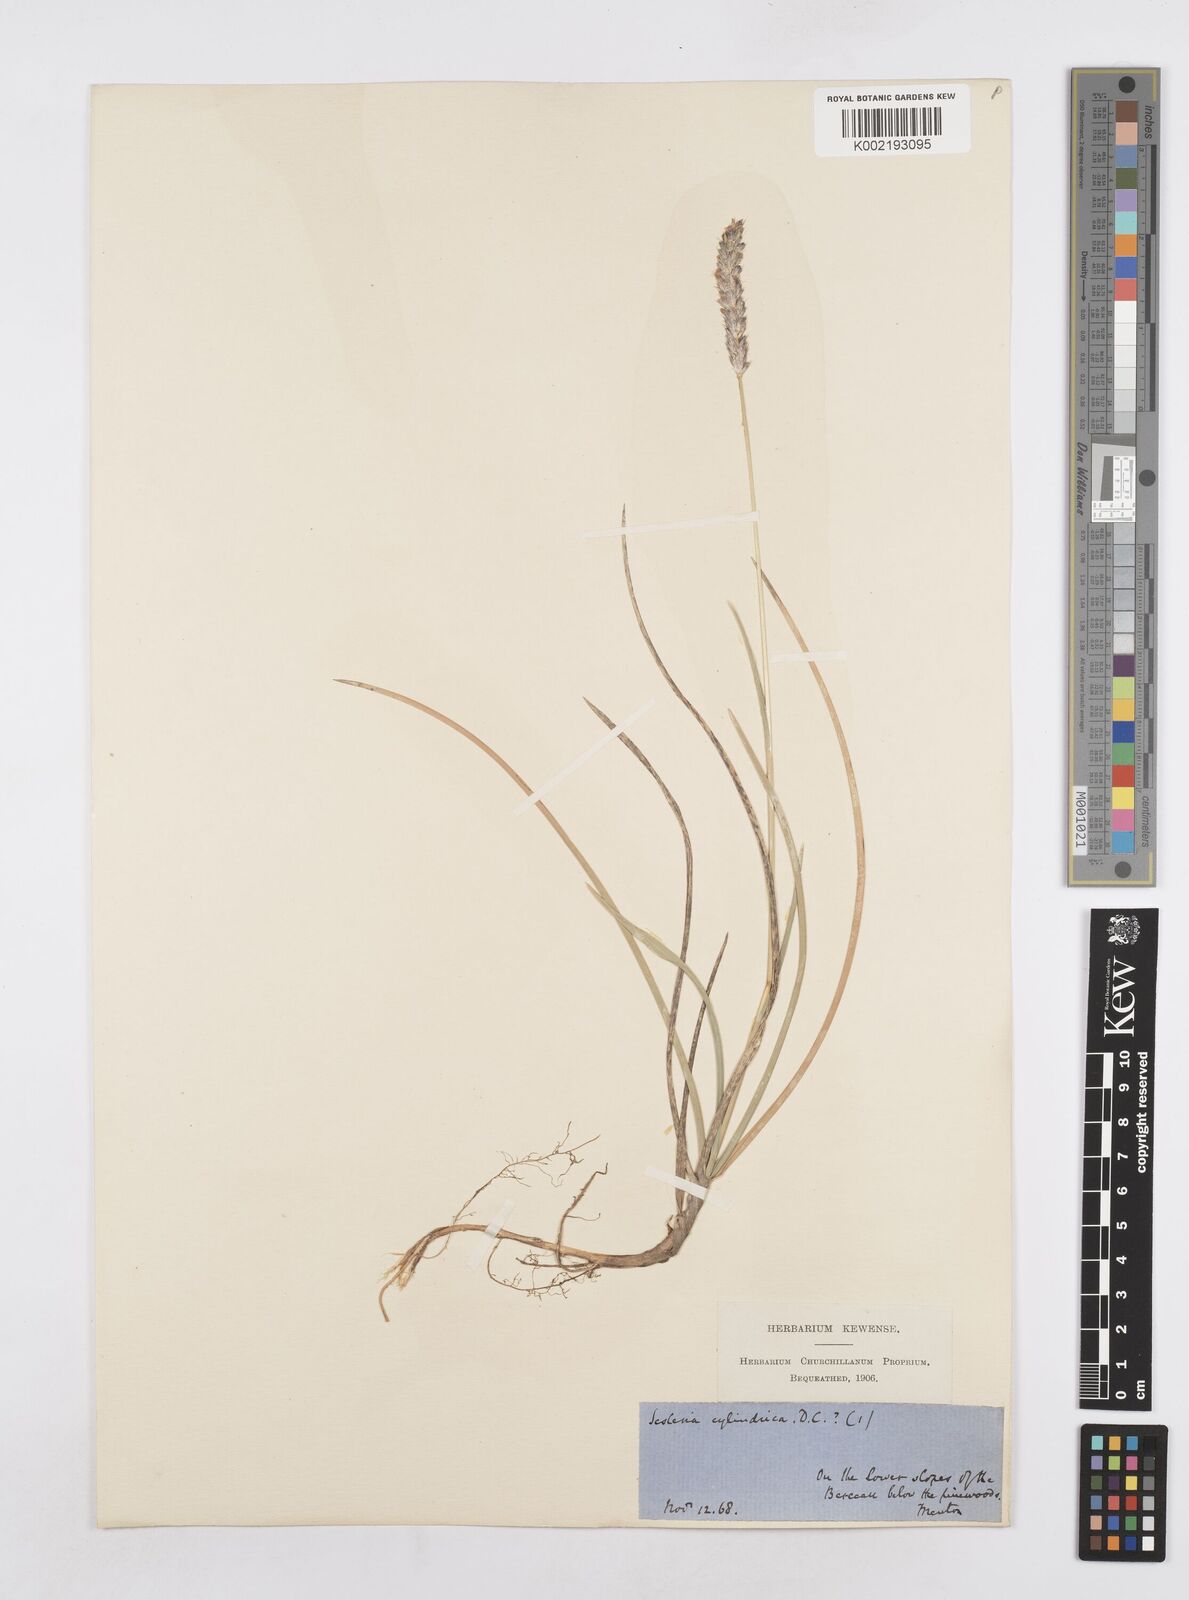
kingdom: Plantae
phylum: Tracheophyta
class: Liliopsida
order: Poales
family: Poaceae
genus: Sesleria
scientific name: Sesleria
